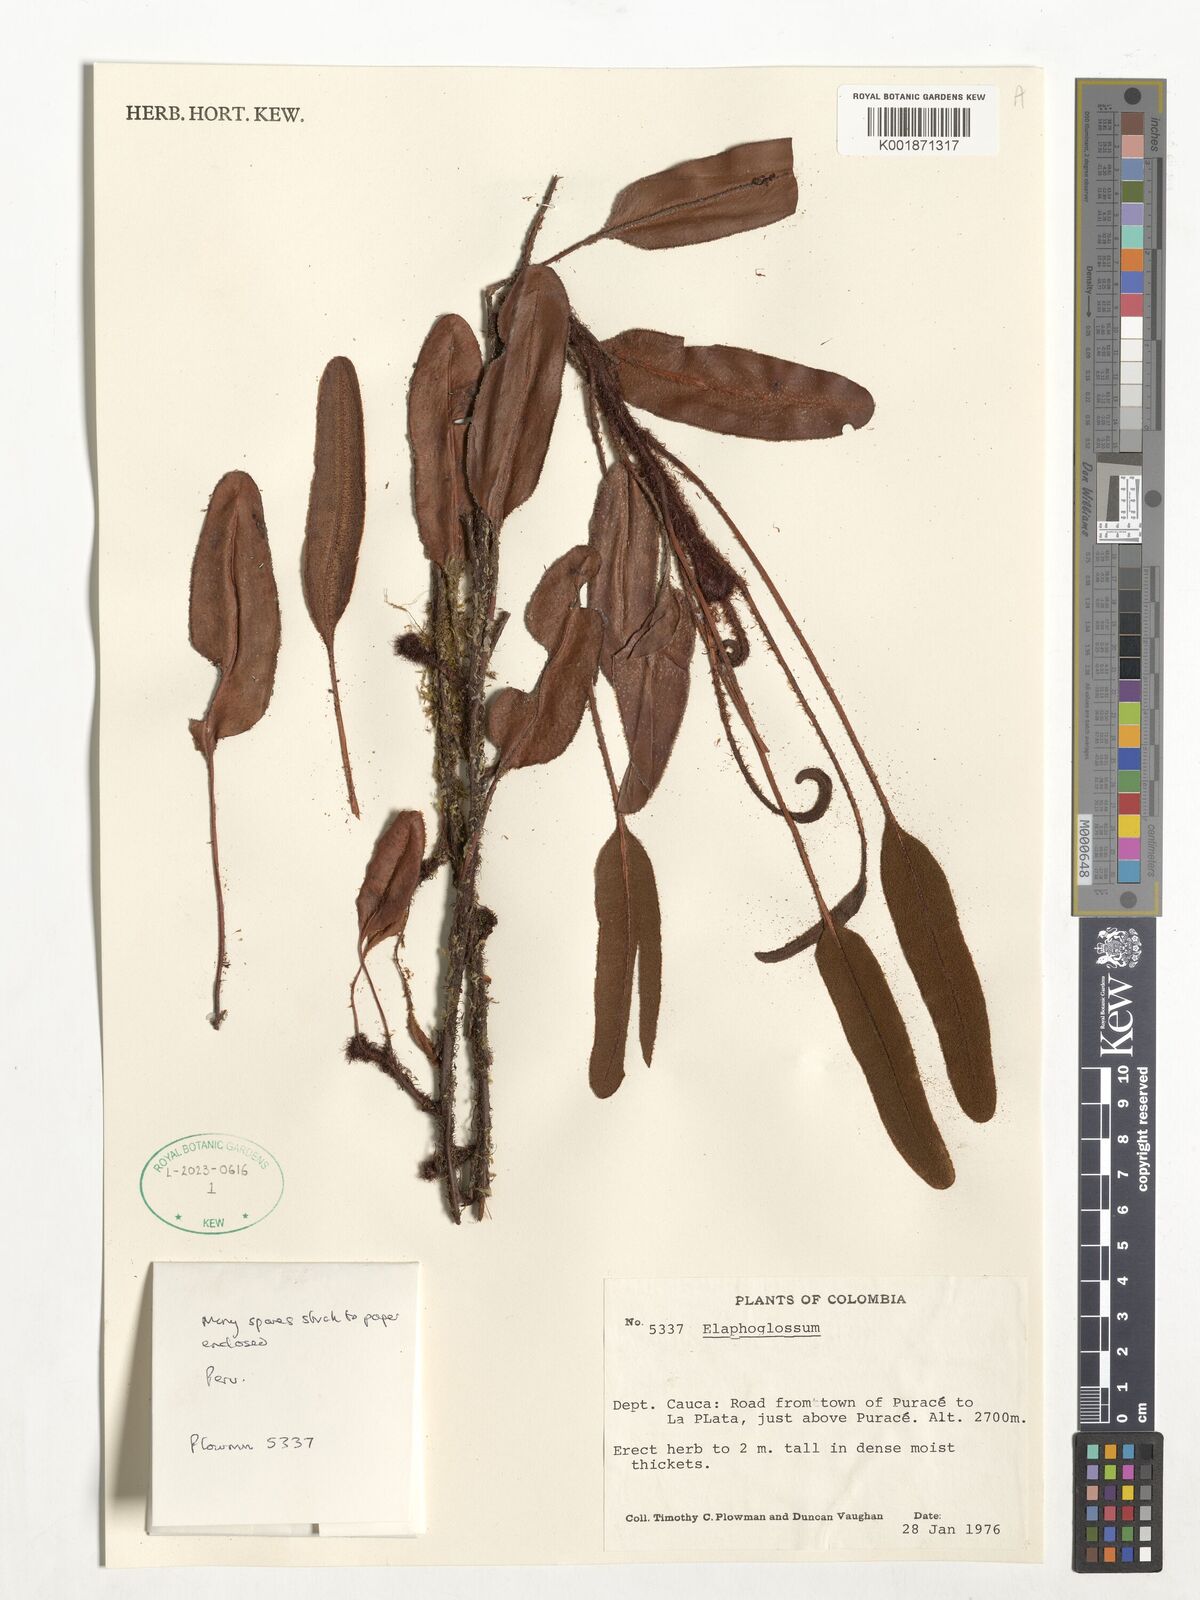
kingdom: Plantae
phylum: Tracheophyta
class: Polypodiopsida
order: Polypodiales
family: Dryopteridaceae
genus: Elaphoglossum
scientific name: Elaphoglossum
